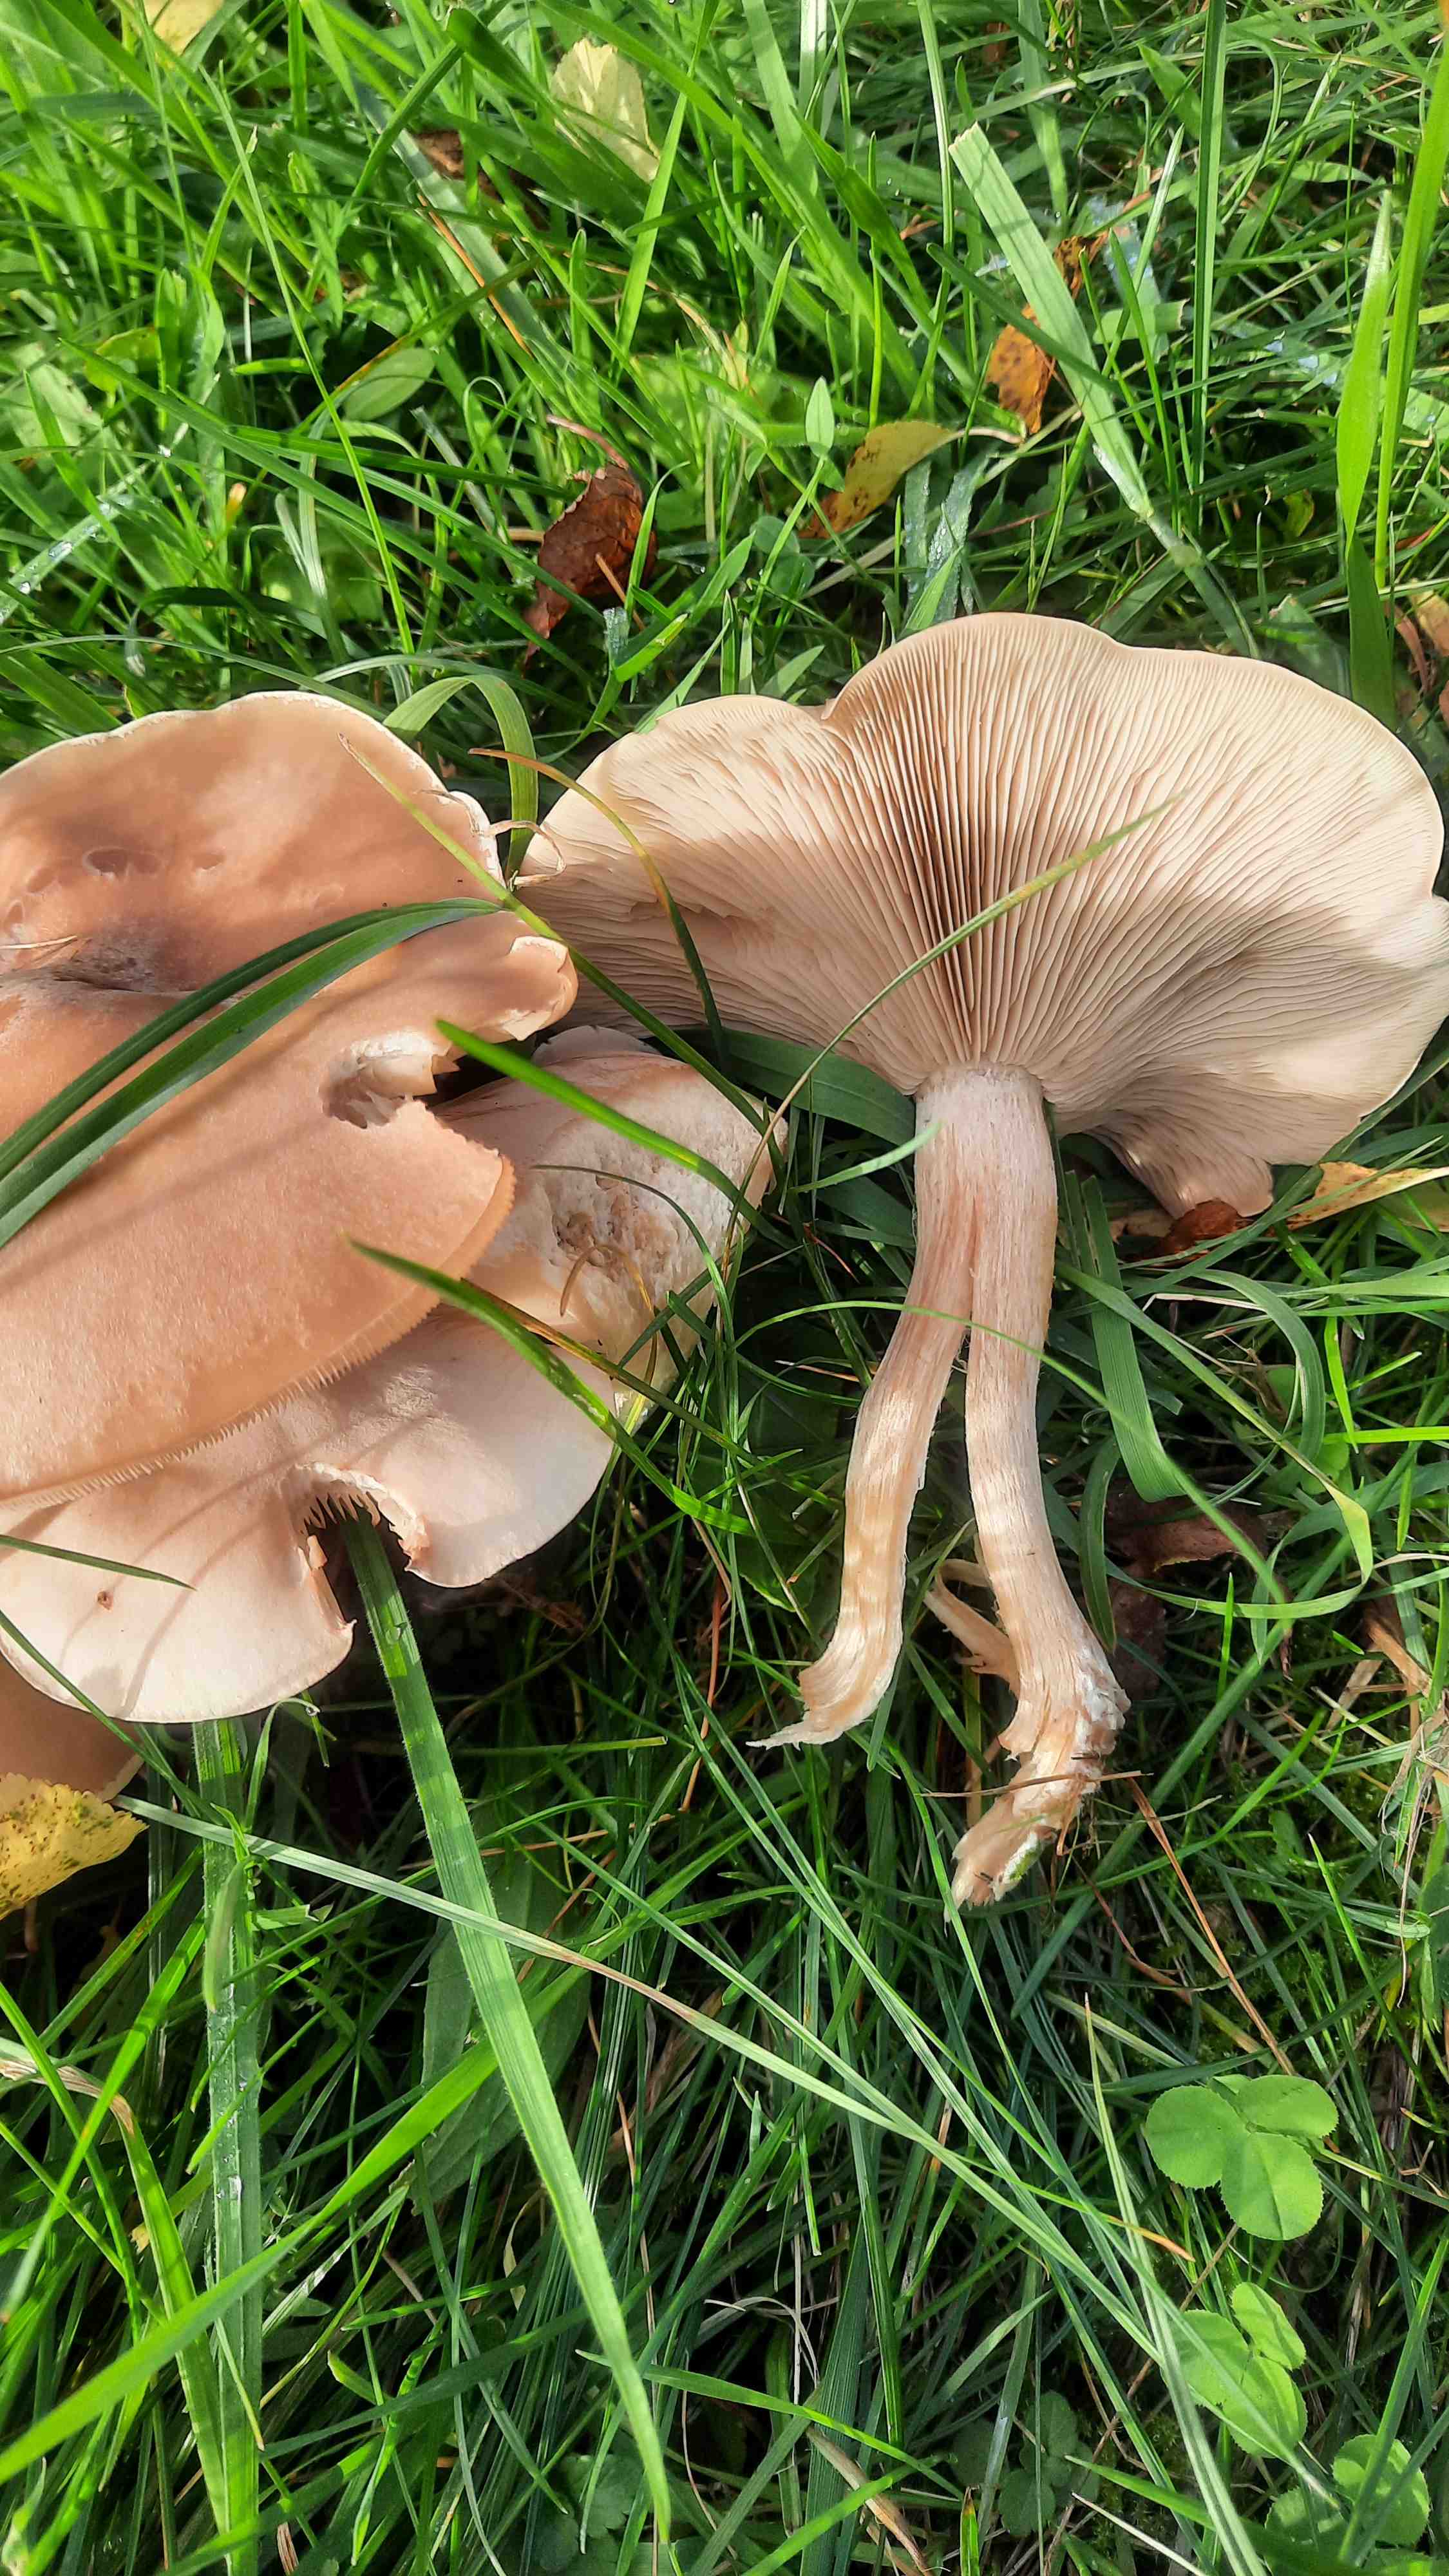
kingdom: Fungi
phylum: Basidiomycota
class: Agaricomycetes
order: Agaricales
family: Tricholomataceae
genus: Lepista
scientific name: Lepista
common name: hekseringshat
